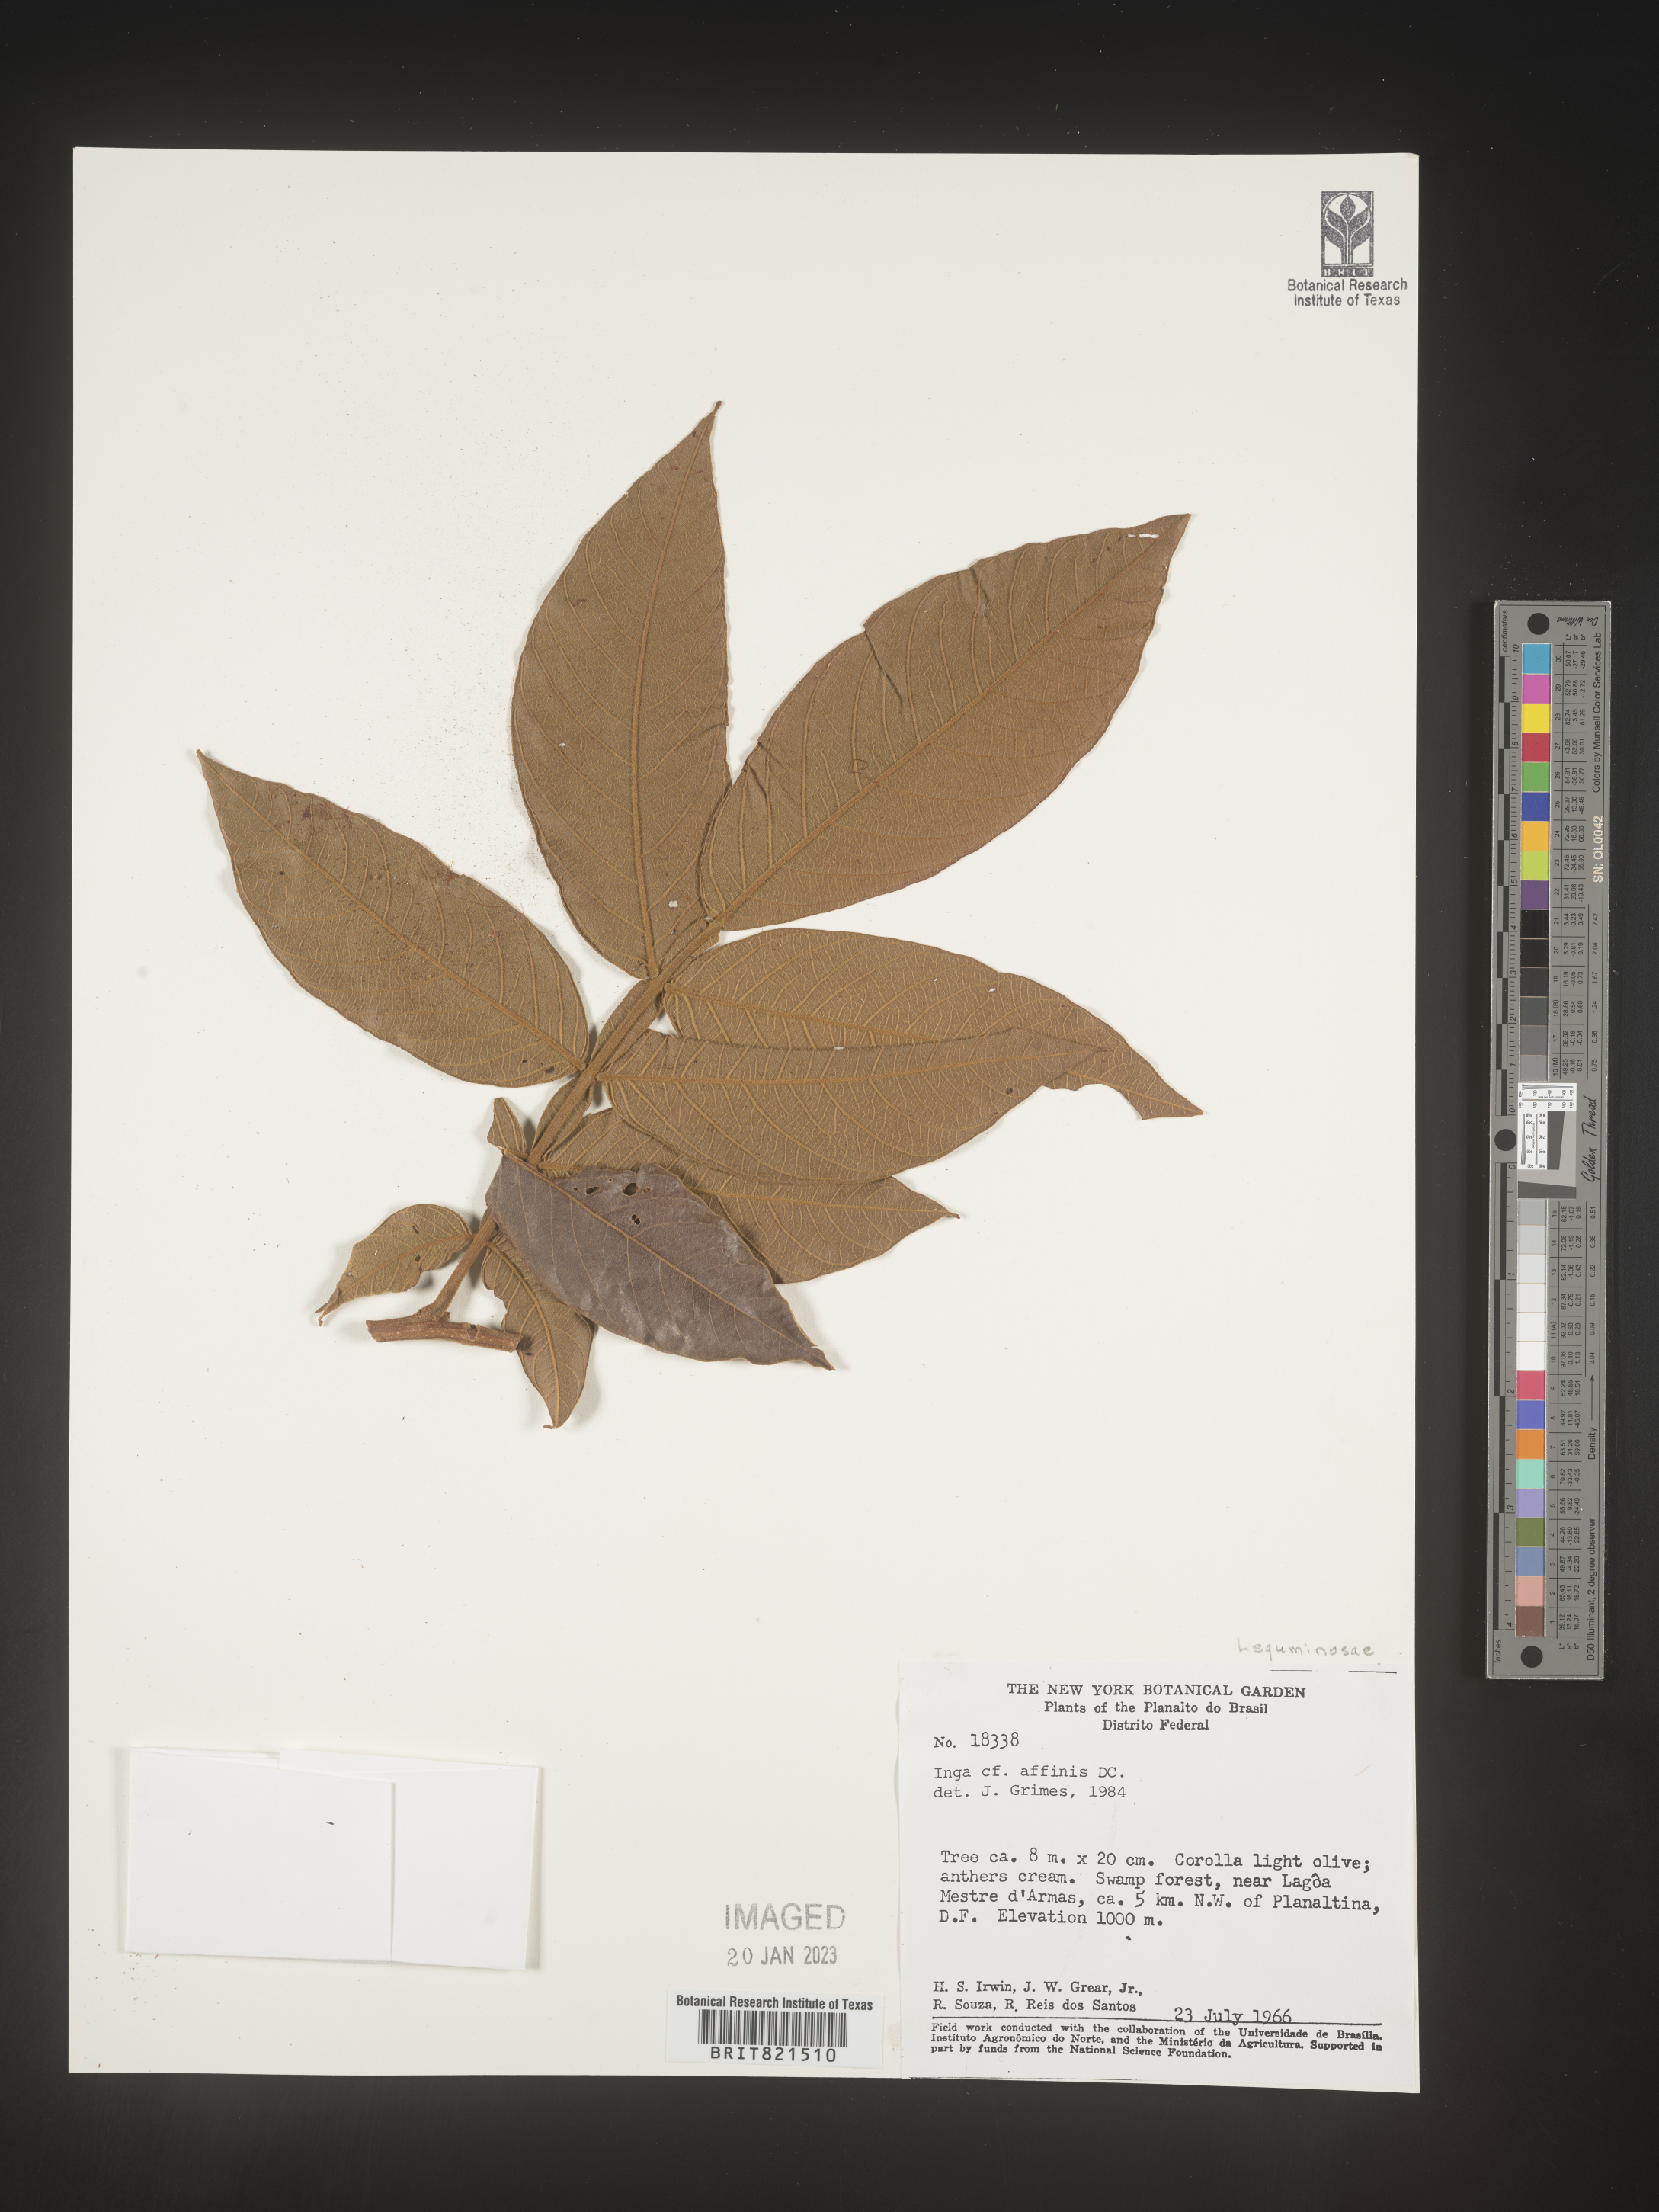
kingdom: Plantae
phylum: Tracheophyta
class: Magnoliopsida
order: Fabales
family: Fabaceae
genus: Inga
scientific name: Inga
